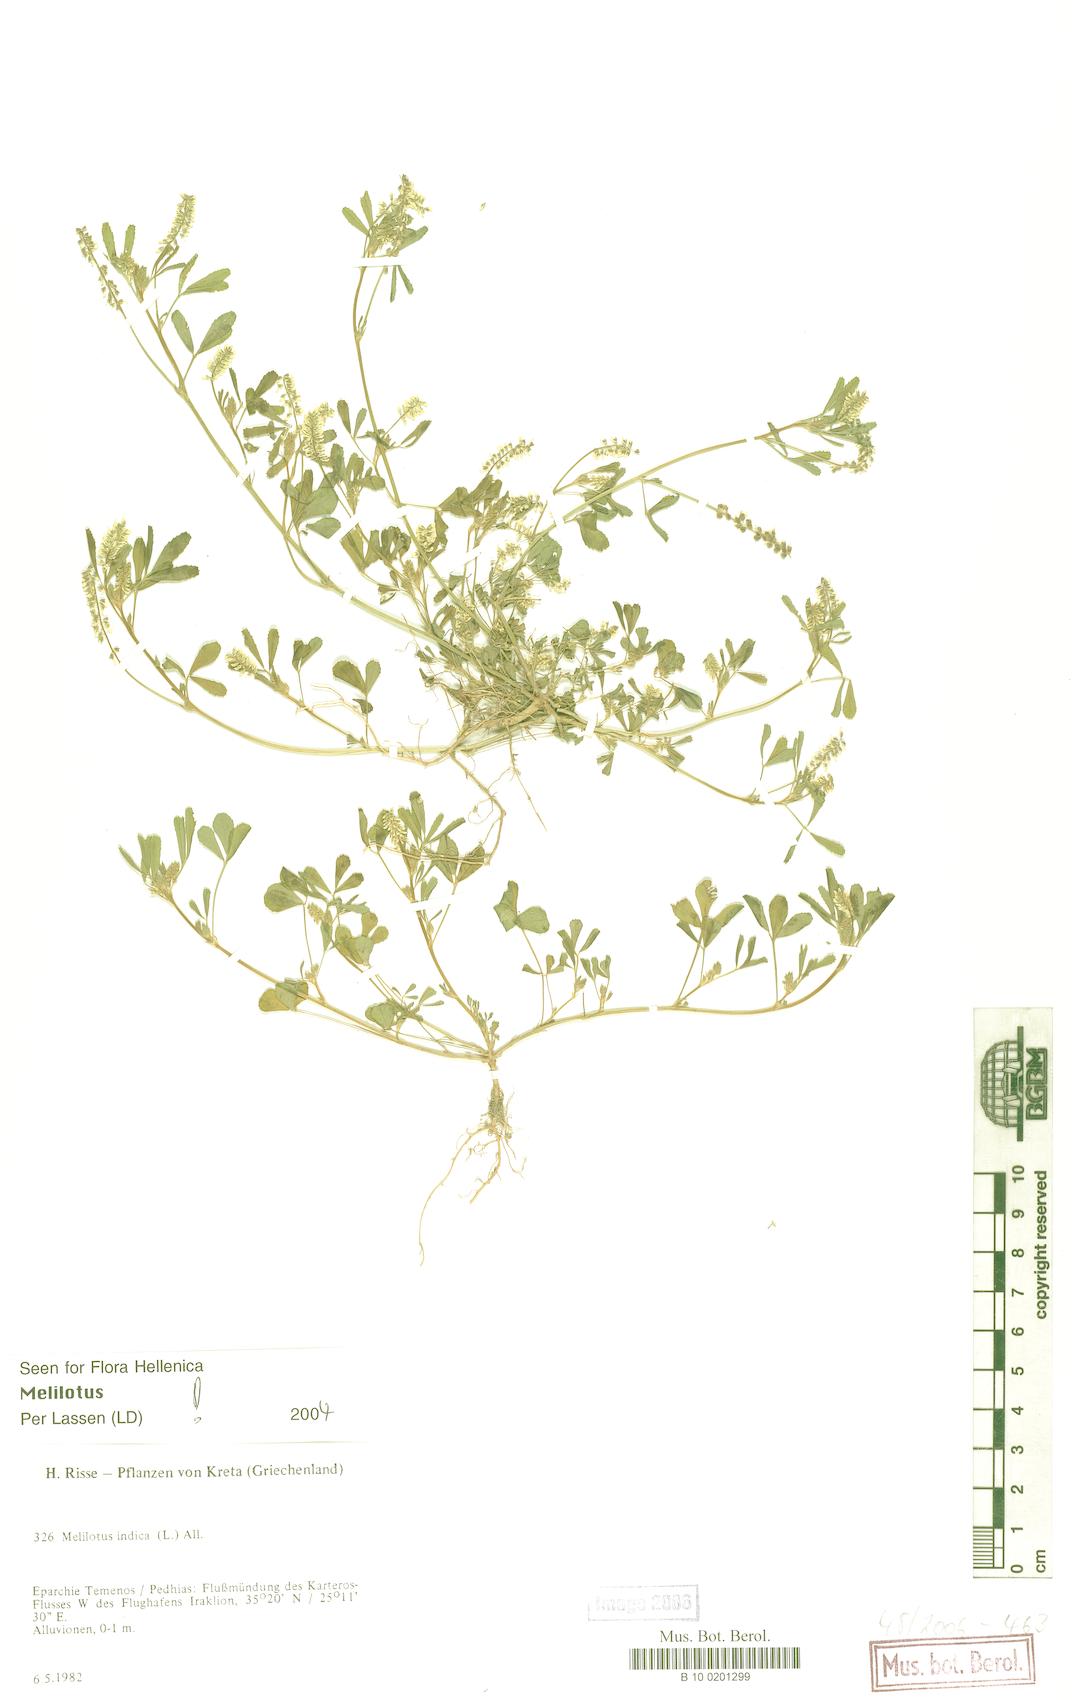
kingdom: Plantae
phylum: Tracheophyta
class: Magnoliopsida
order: Fabales
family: Fabaceae
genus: Melilotus
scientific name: Melilotus indicus
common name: Small melilot
